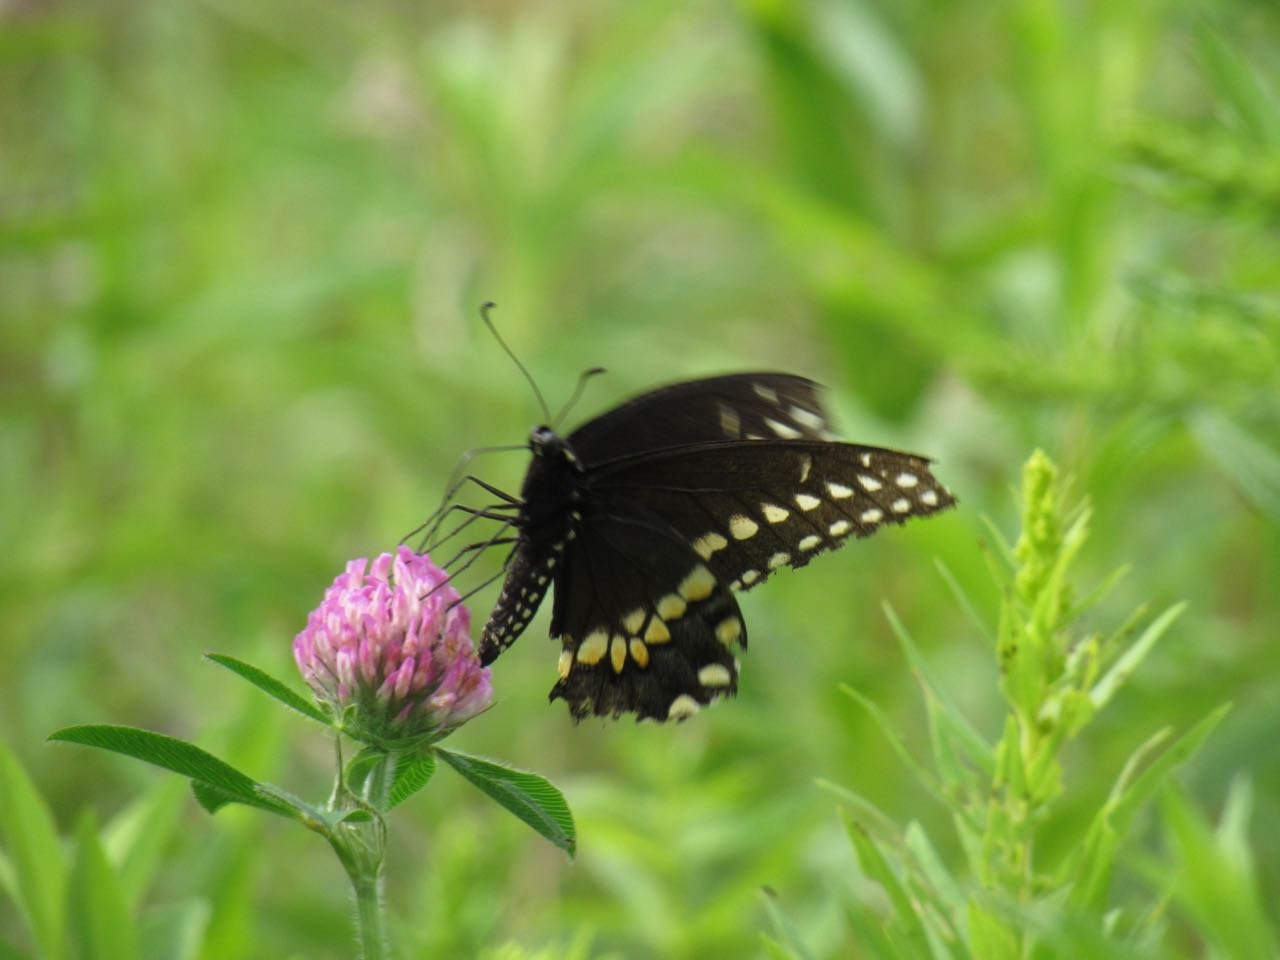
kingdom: Animalia
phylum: Arthropoda
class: Insecta
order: Lepidoptera
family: Papilionidae
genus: Papilio
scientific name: Papilio polyxenes
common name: Black Swallowtail
